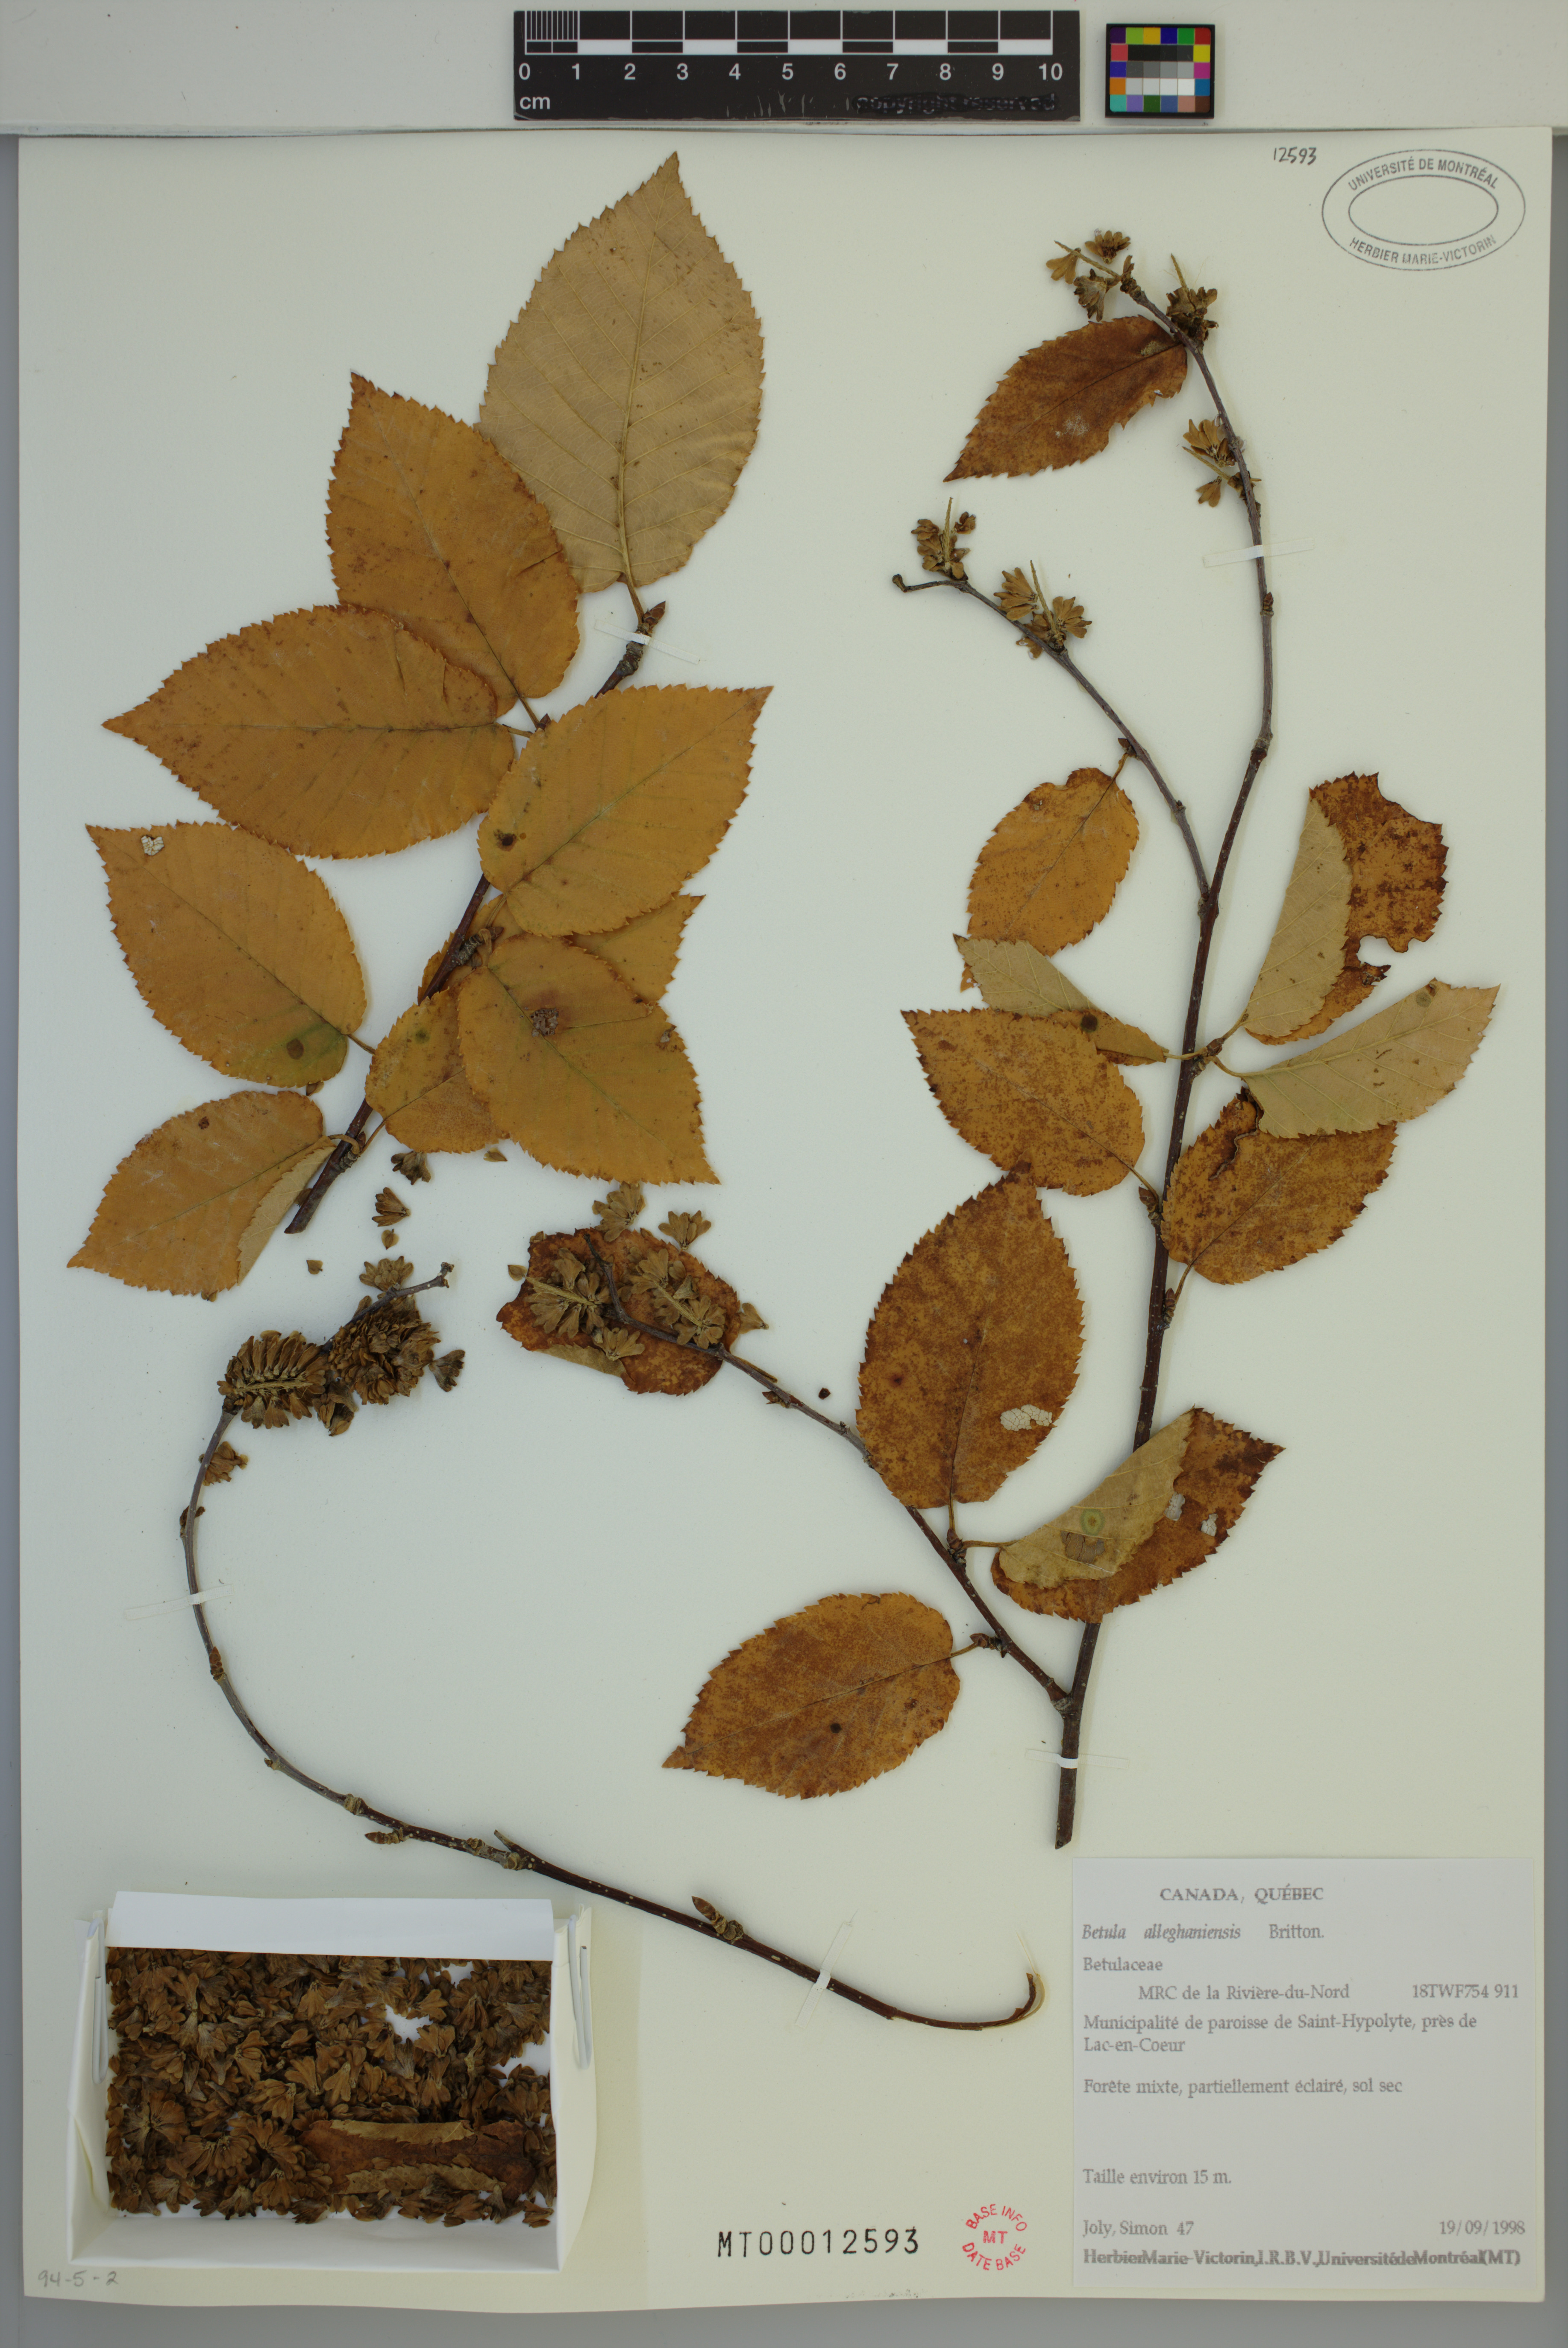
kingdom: Plantae
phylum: Tracheophyta
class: Magnoliopsida
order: Fagales
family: Betulaceae
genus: Betula
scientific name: Betula alleghaniensis
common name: Yellow birch
